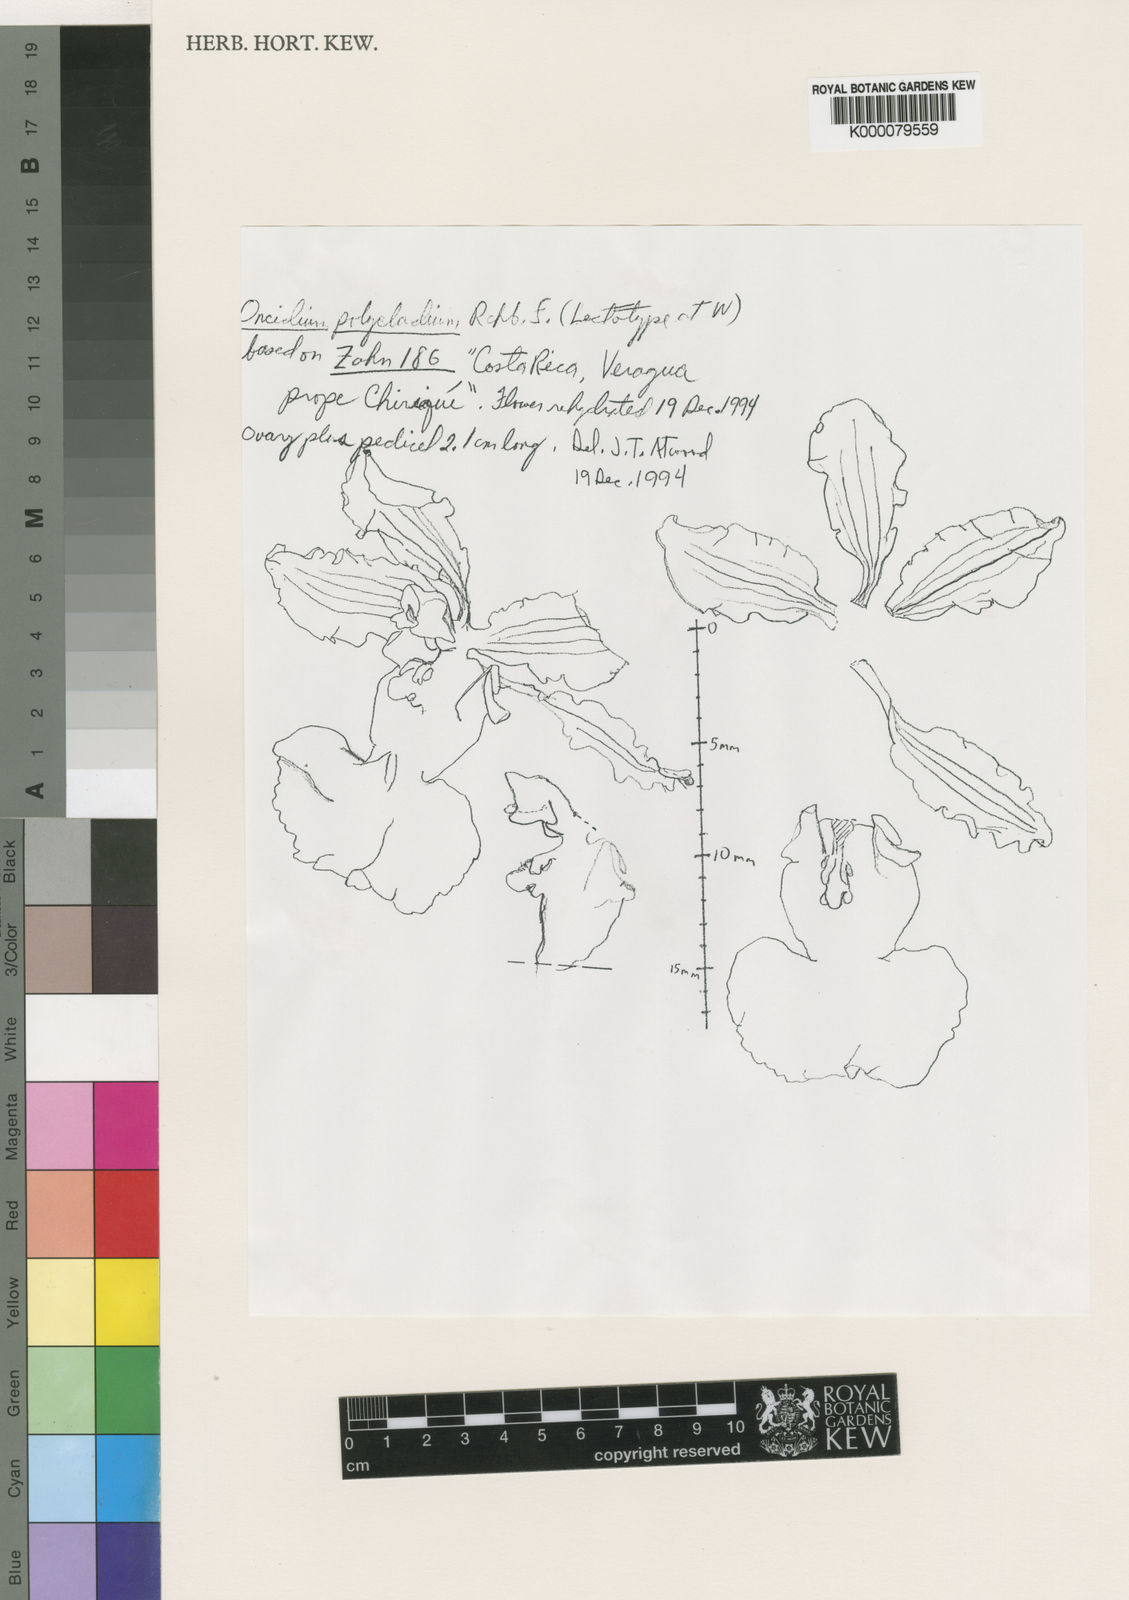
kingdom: Plantae
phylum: Tracheophyta
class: Liliopsida
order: Asparagales
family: Orchidaceae
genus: Oncidium
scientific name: Oncidium polycladium
